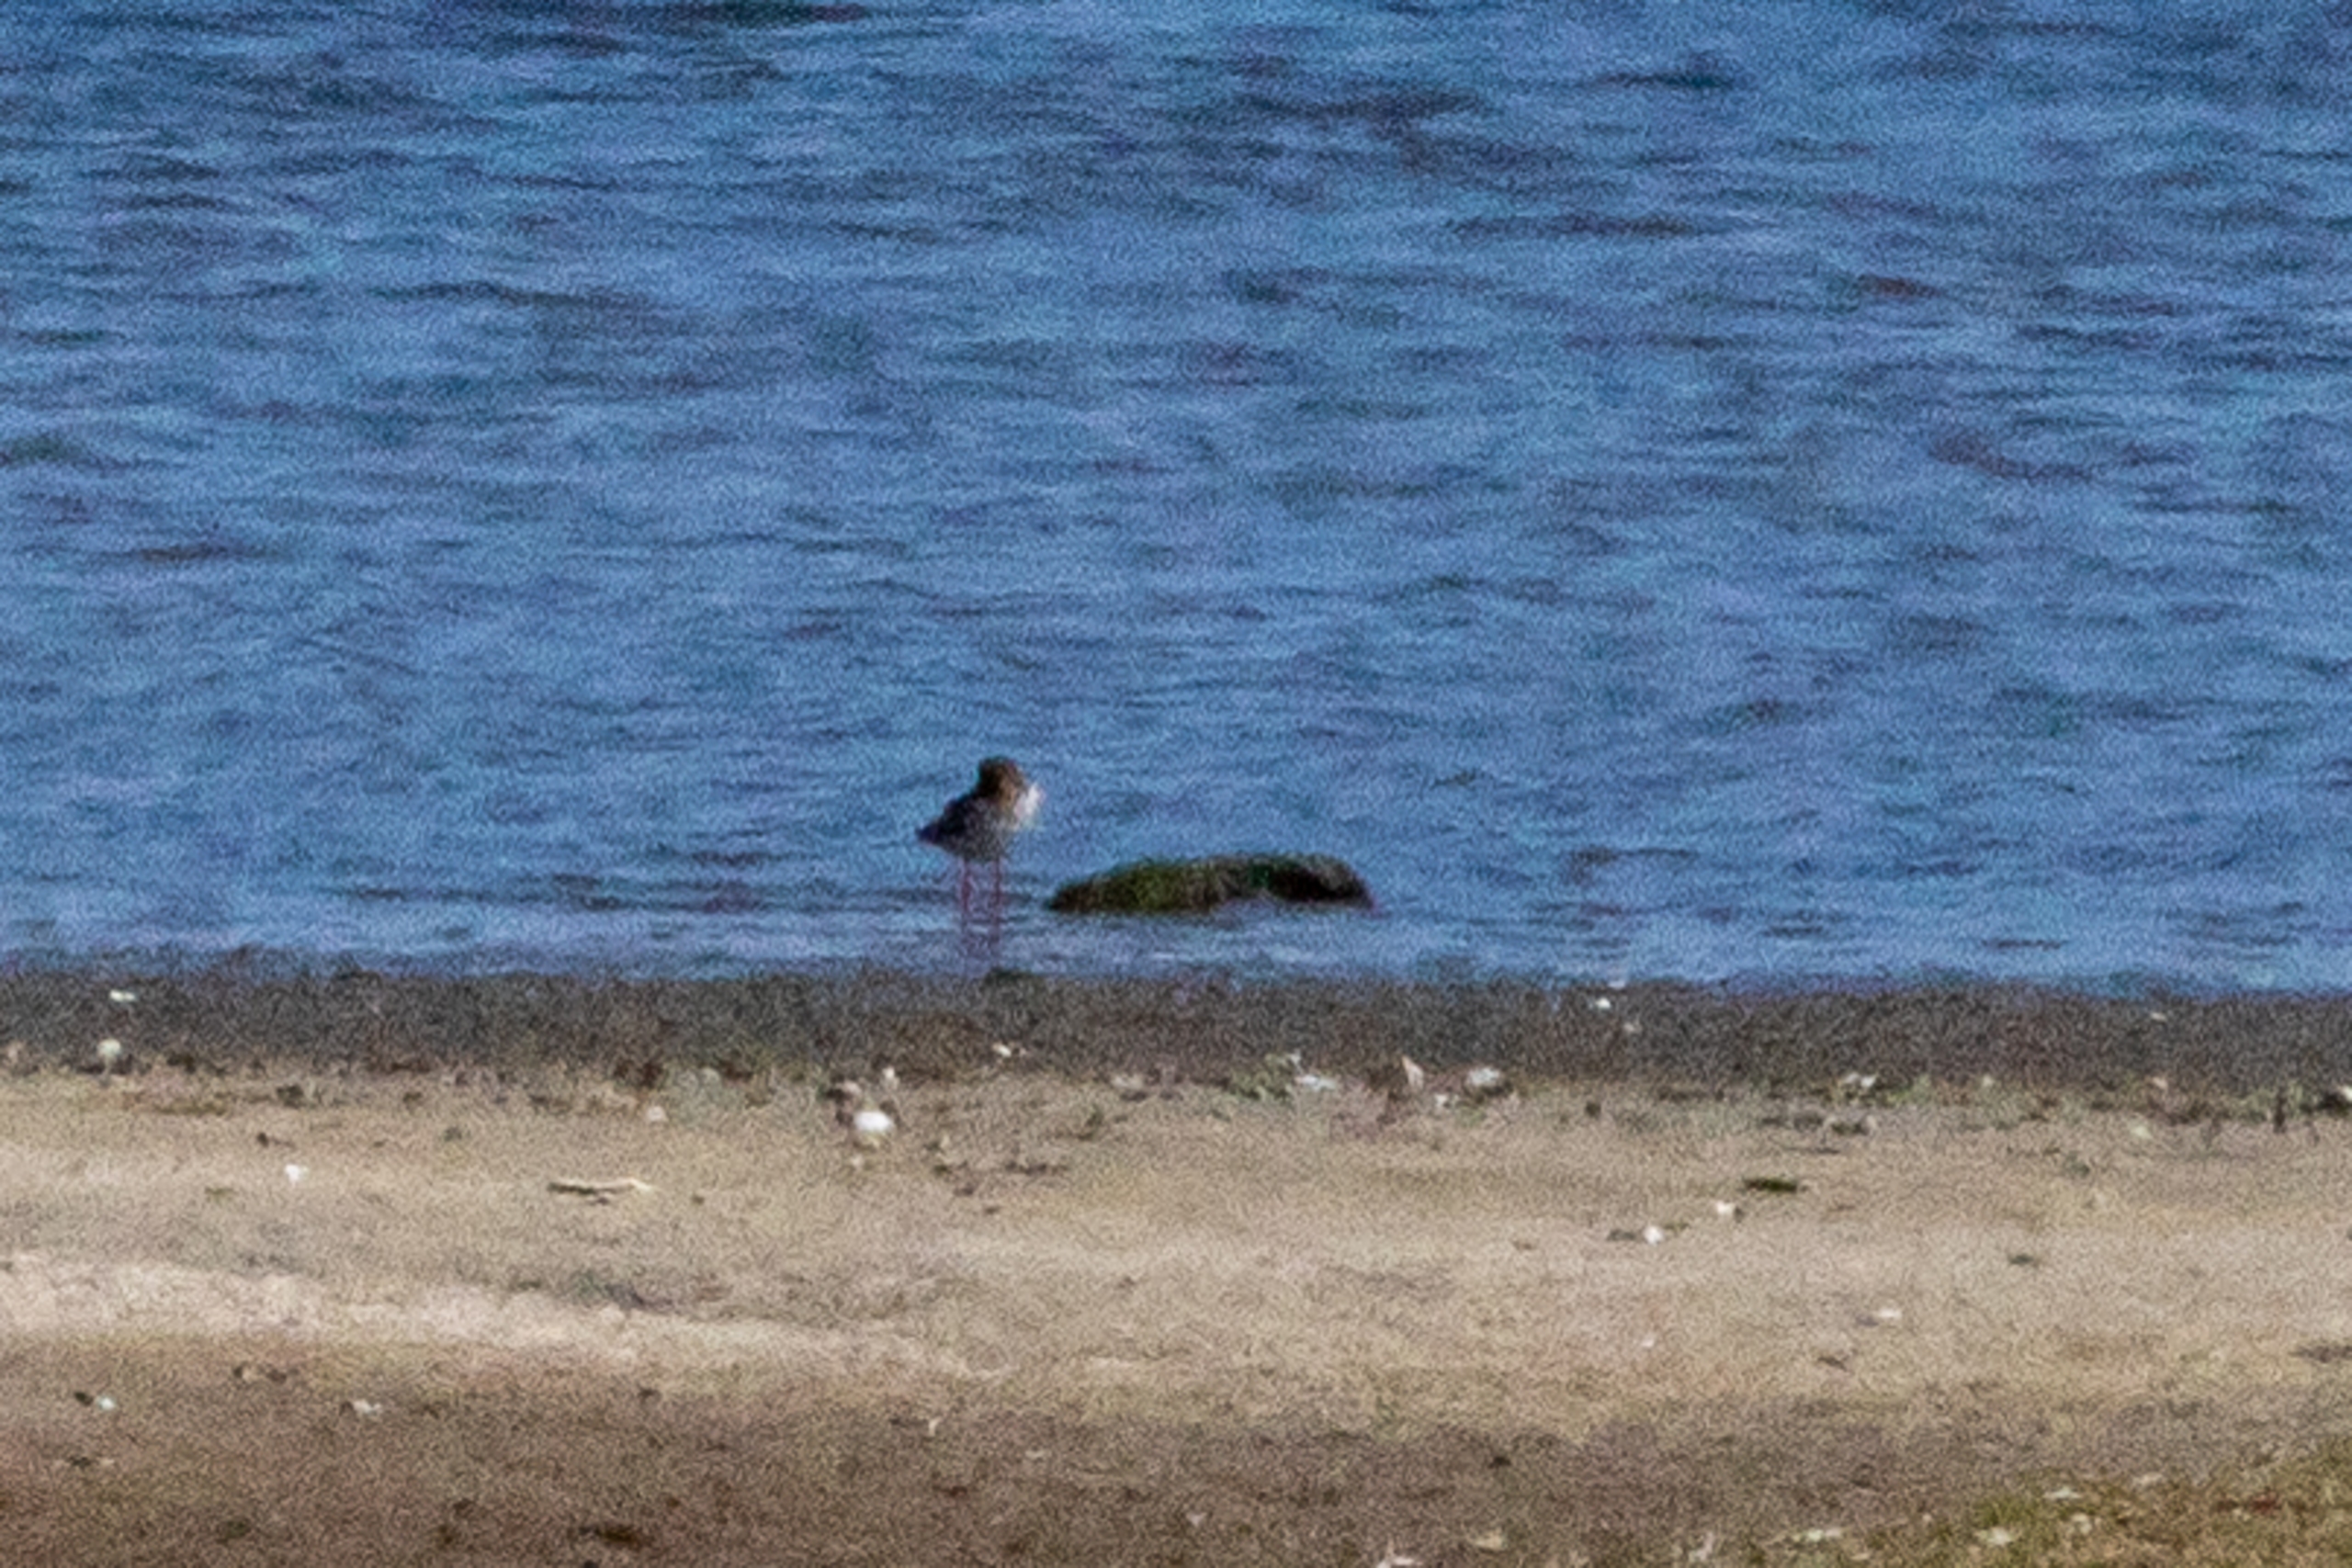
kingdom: Animalia
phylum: Chordata
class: Aves
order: Charadriiformes
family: Scolopacidae
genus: Tringa
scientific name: Tringa totanus
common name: Rødben
